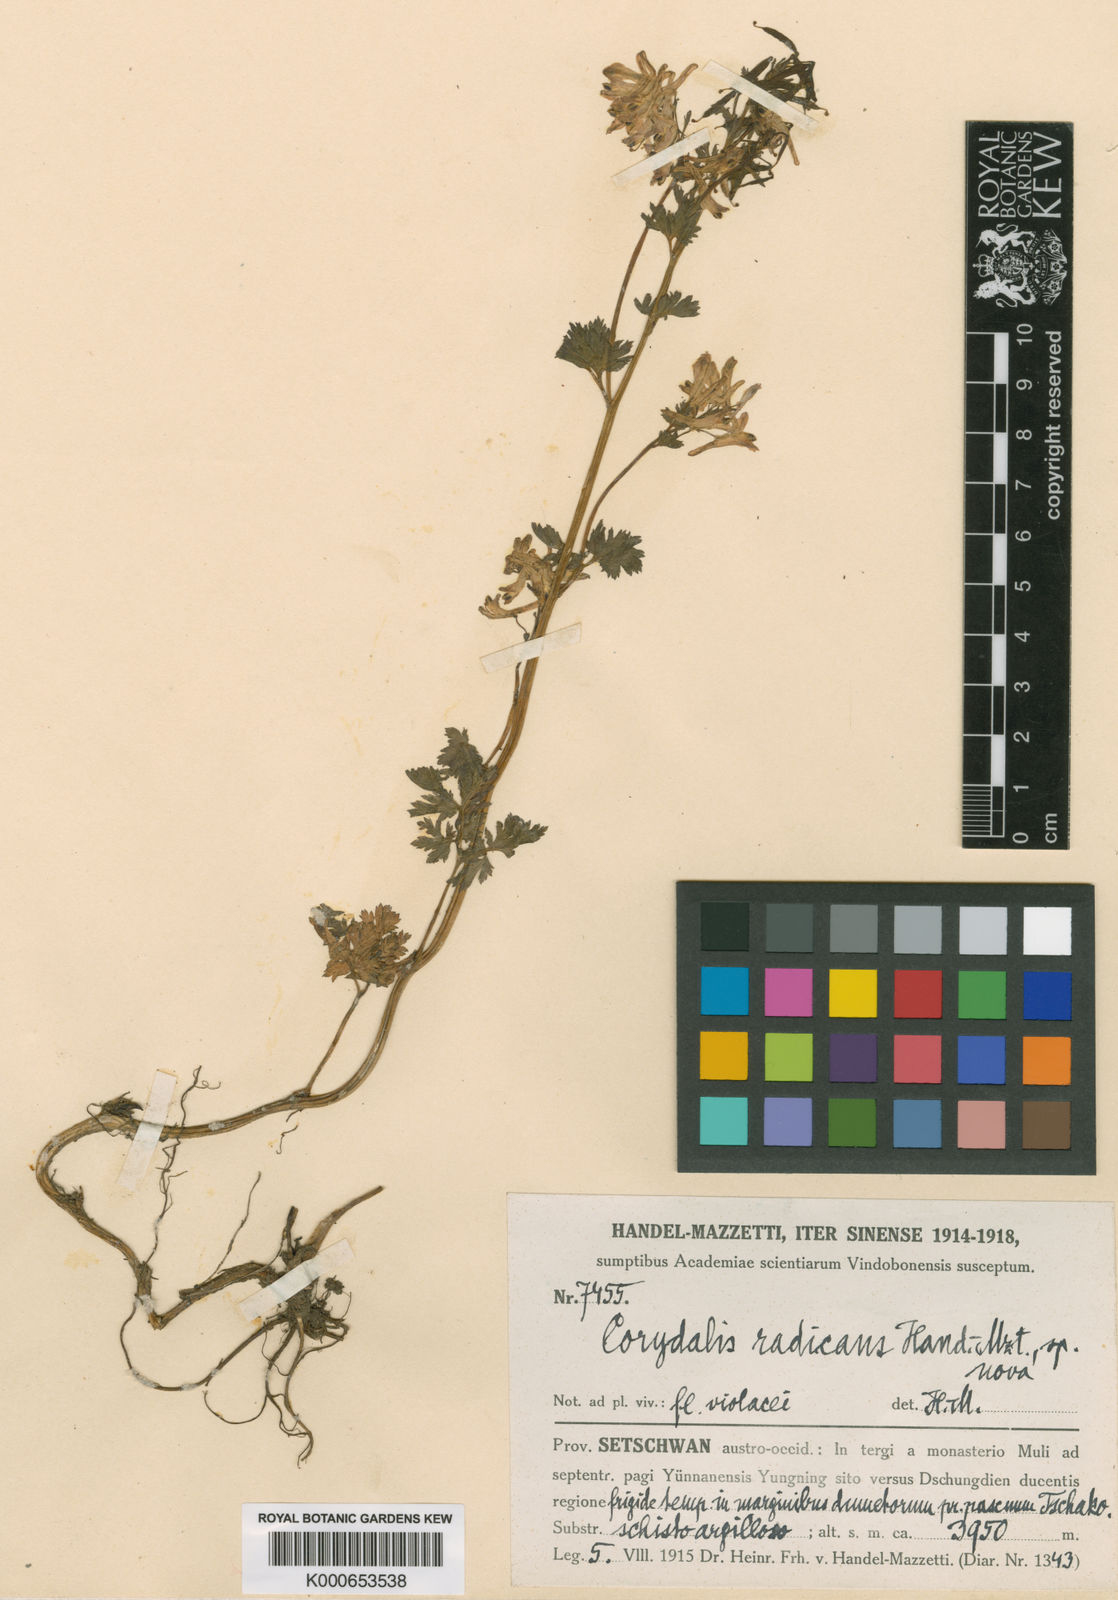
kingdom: Plantae
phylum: Tracheophyta
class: Magnoliopsida
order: Ranunculales
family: Papaveraceae
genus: Corydalis
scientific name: Corydalis radicans
